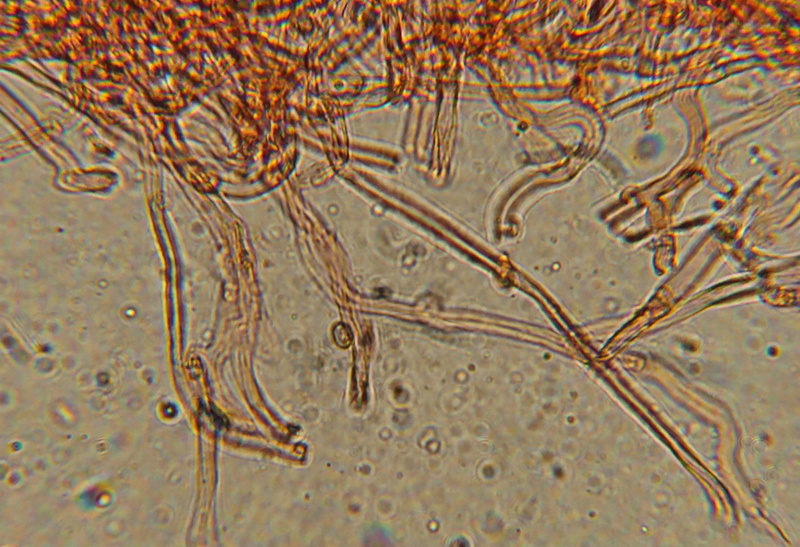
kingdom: Fungi
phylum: Basidiomycota
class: Agaricomycetes
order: Corticiales
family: Corticiaceae
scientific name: Corticiaceae
